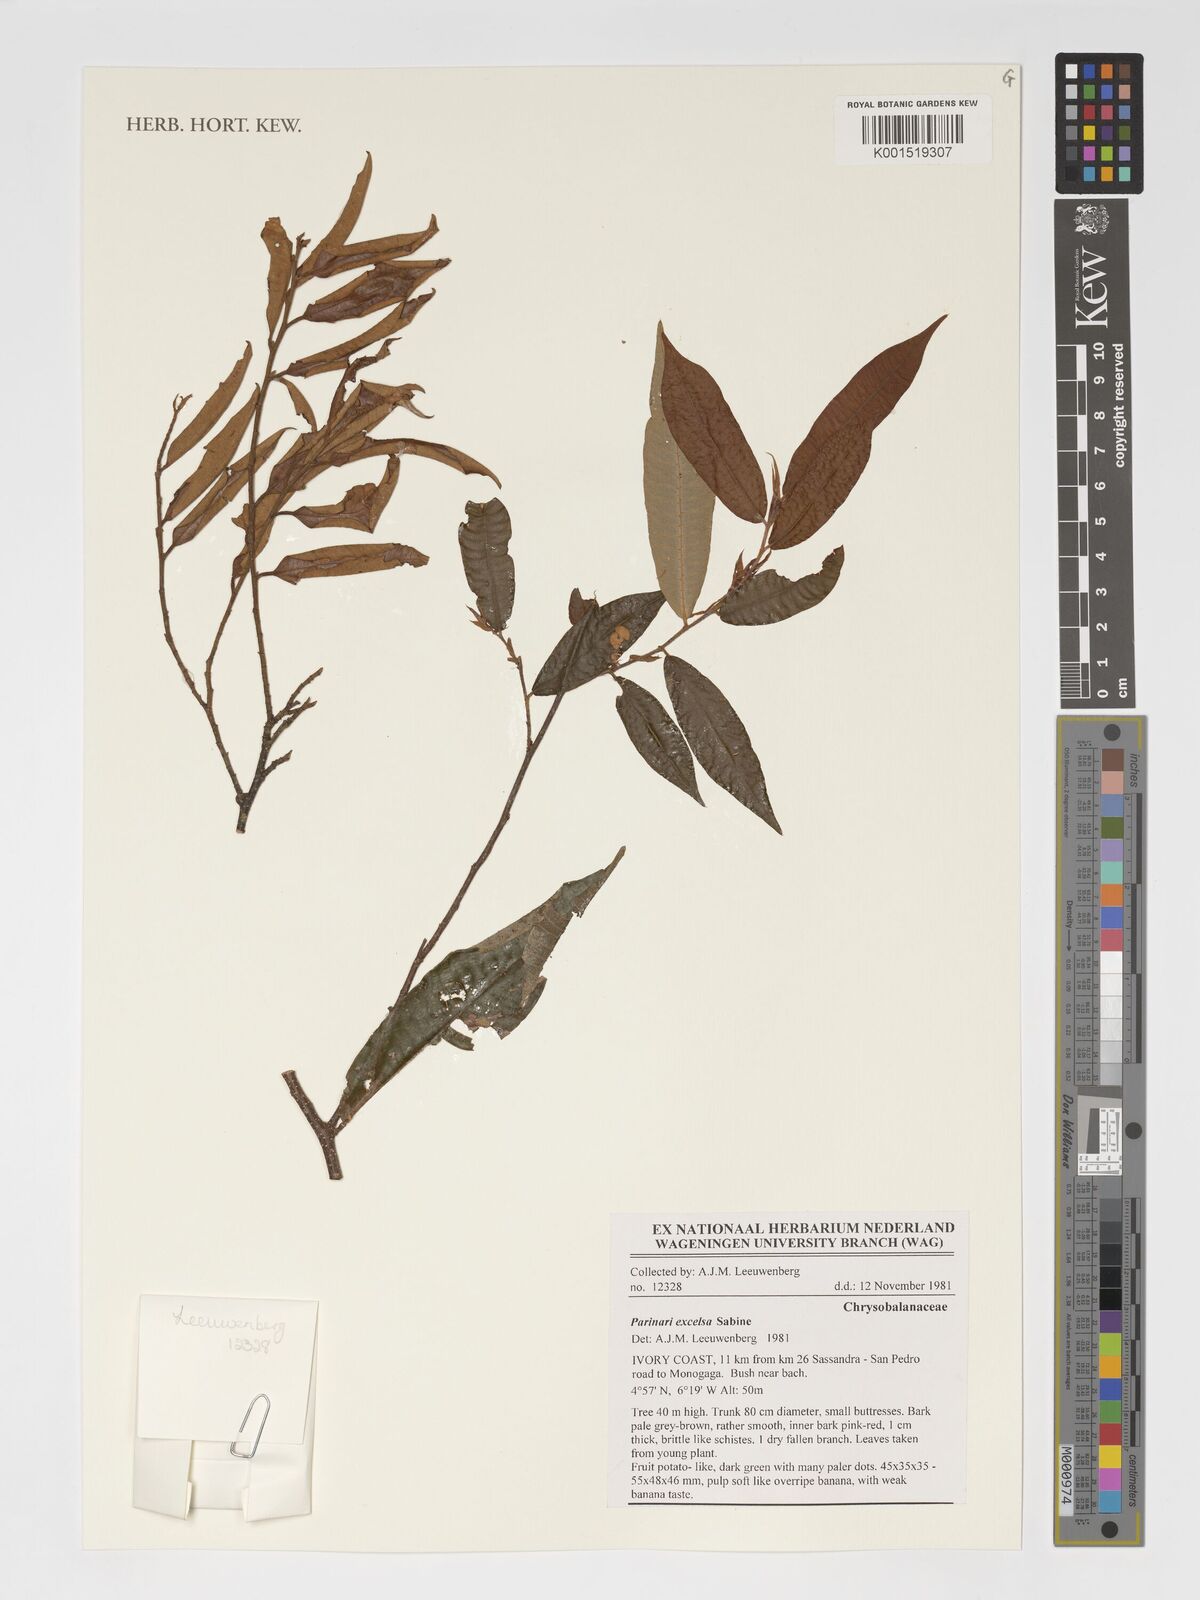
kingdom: Plantae
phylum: Tracheophyta
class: Magnoliopsida
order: Malpighiales
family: Chrysobalanaceae
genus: Parinari
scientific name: Parinari excelsa
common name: Guinea-plum
